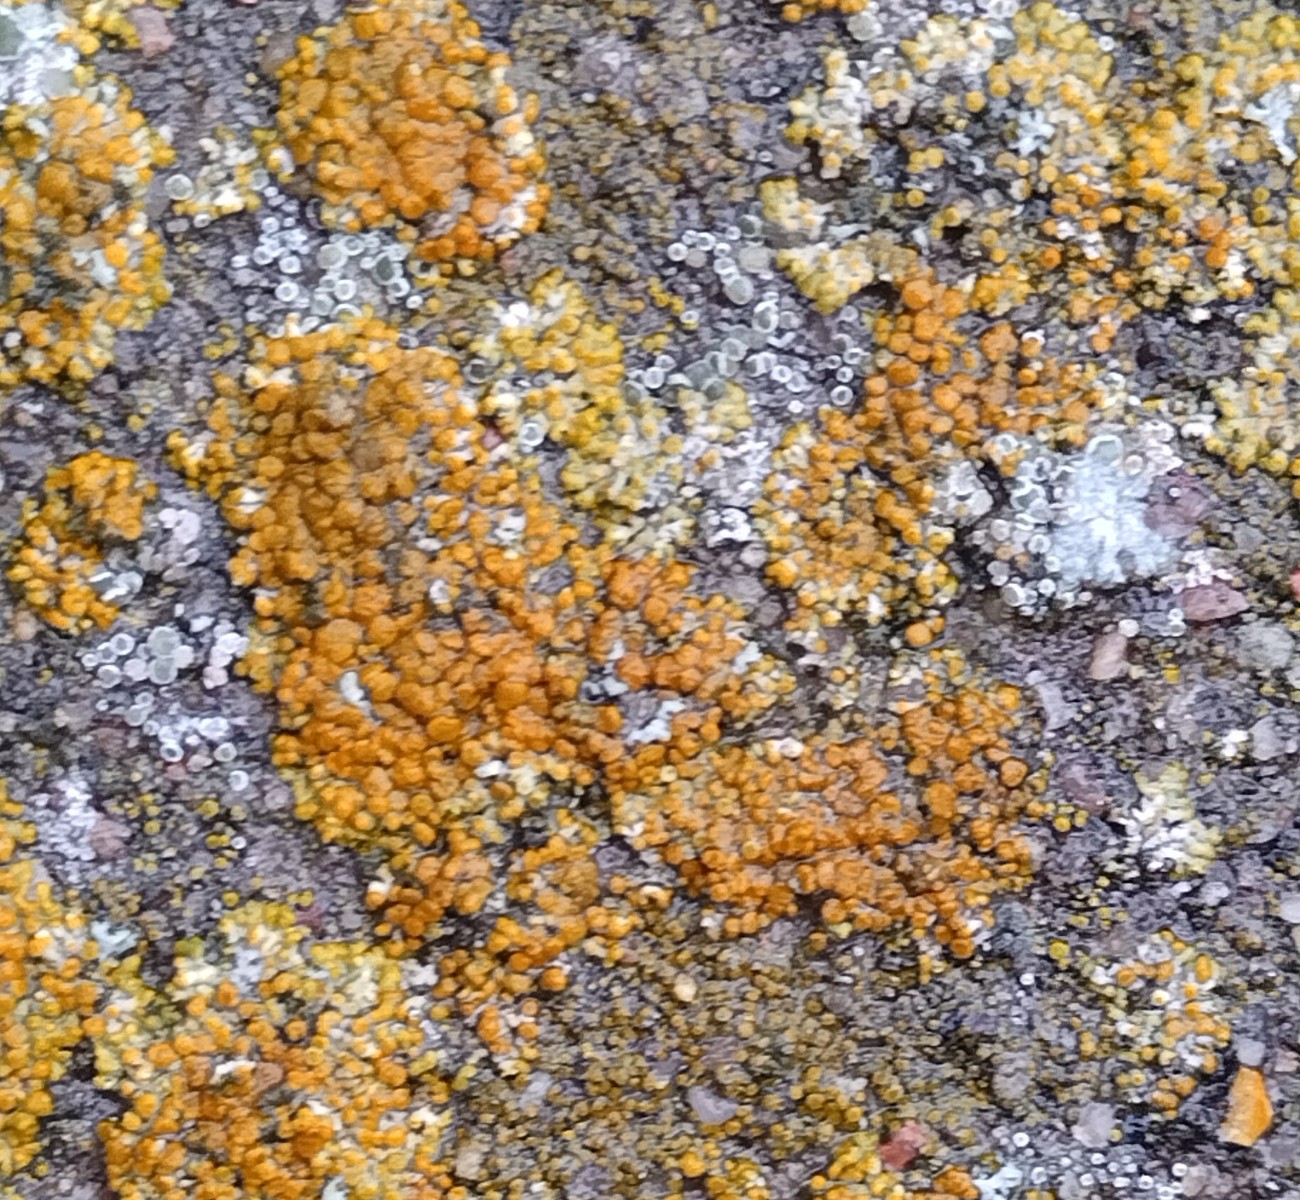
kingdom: Fungi
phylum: Ascomycota
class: Lecanoromycetes
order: Teloschistales
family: Teloschistaceae
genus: Calogaya
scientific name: Calogaya pusilla
